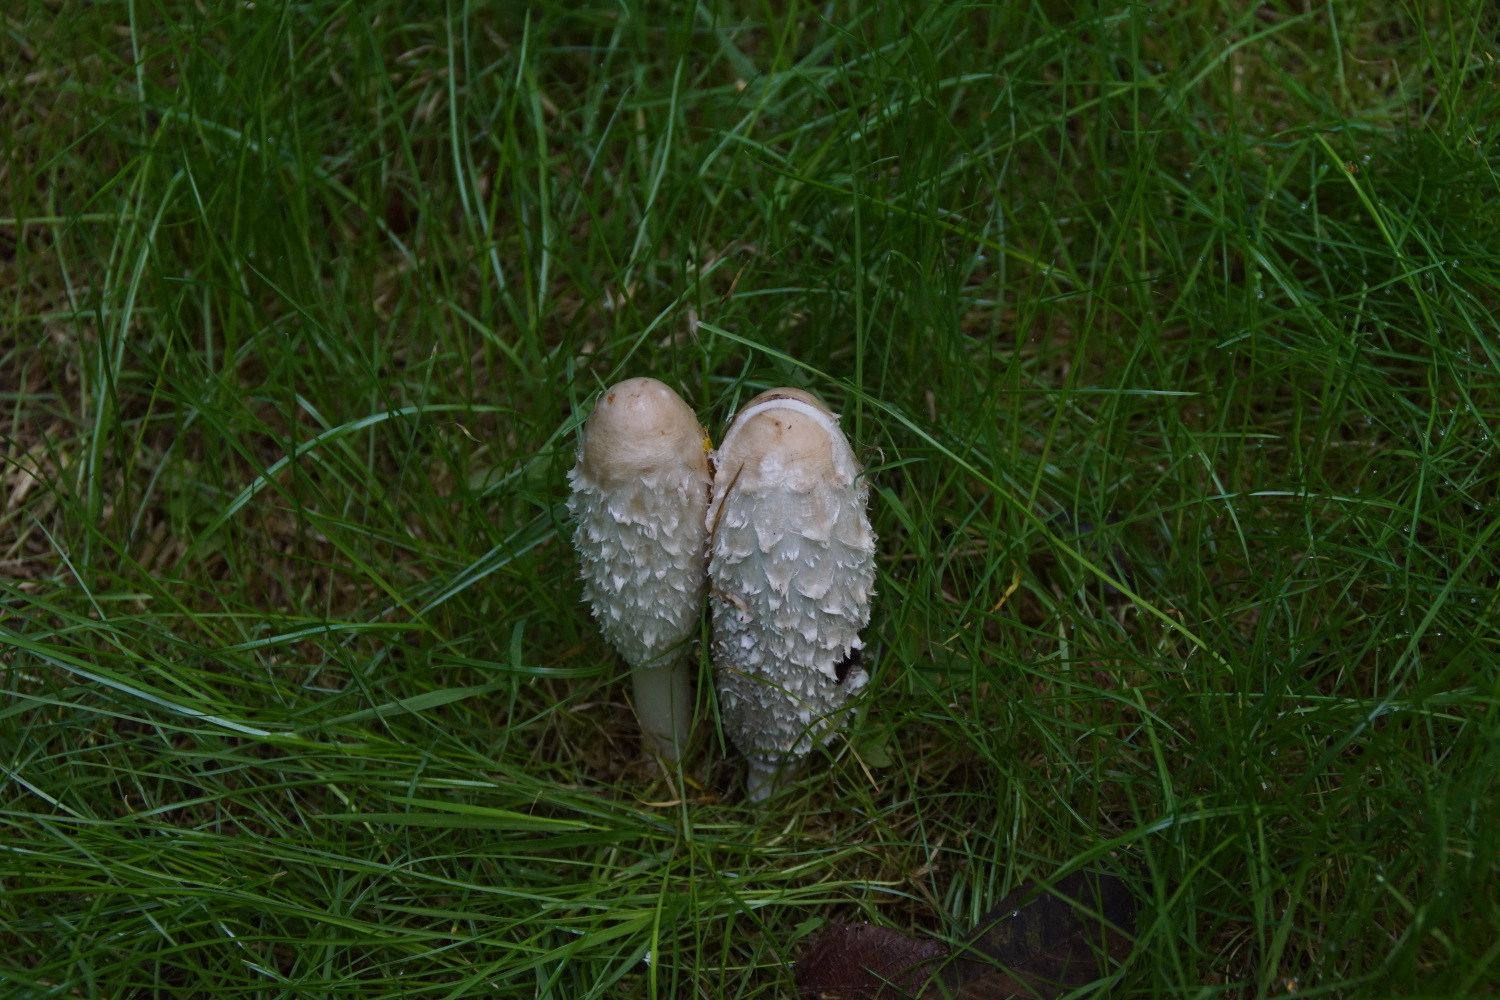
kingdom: Fungi
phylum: Basidiomycota
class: Agaricomycetes
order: Agaricales
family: Agaricaceae
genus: Coprinus
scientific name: Coprinus comatus
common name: stor parykhat
